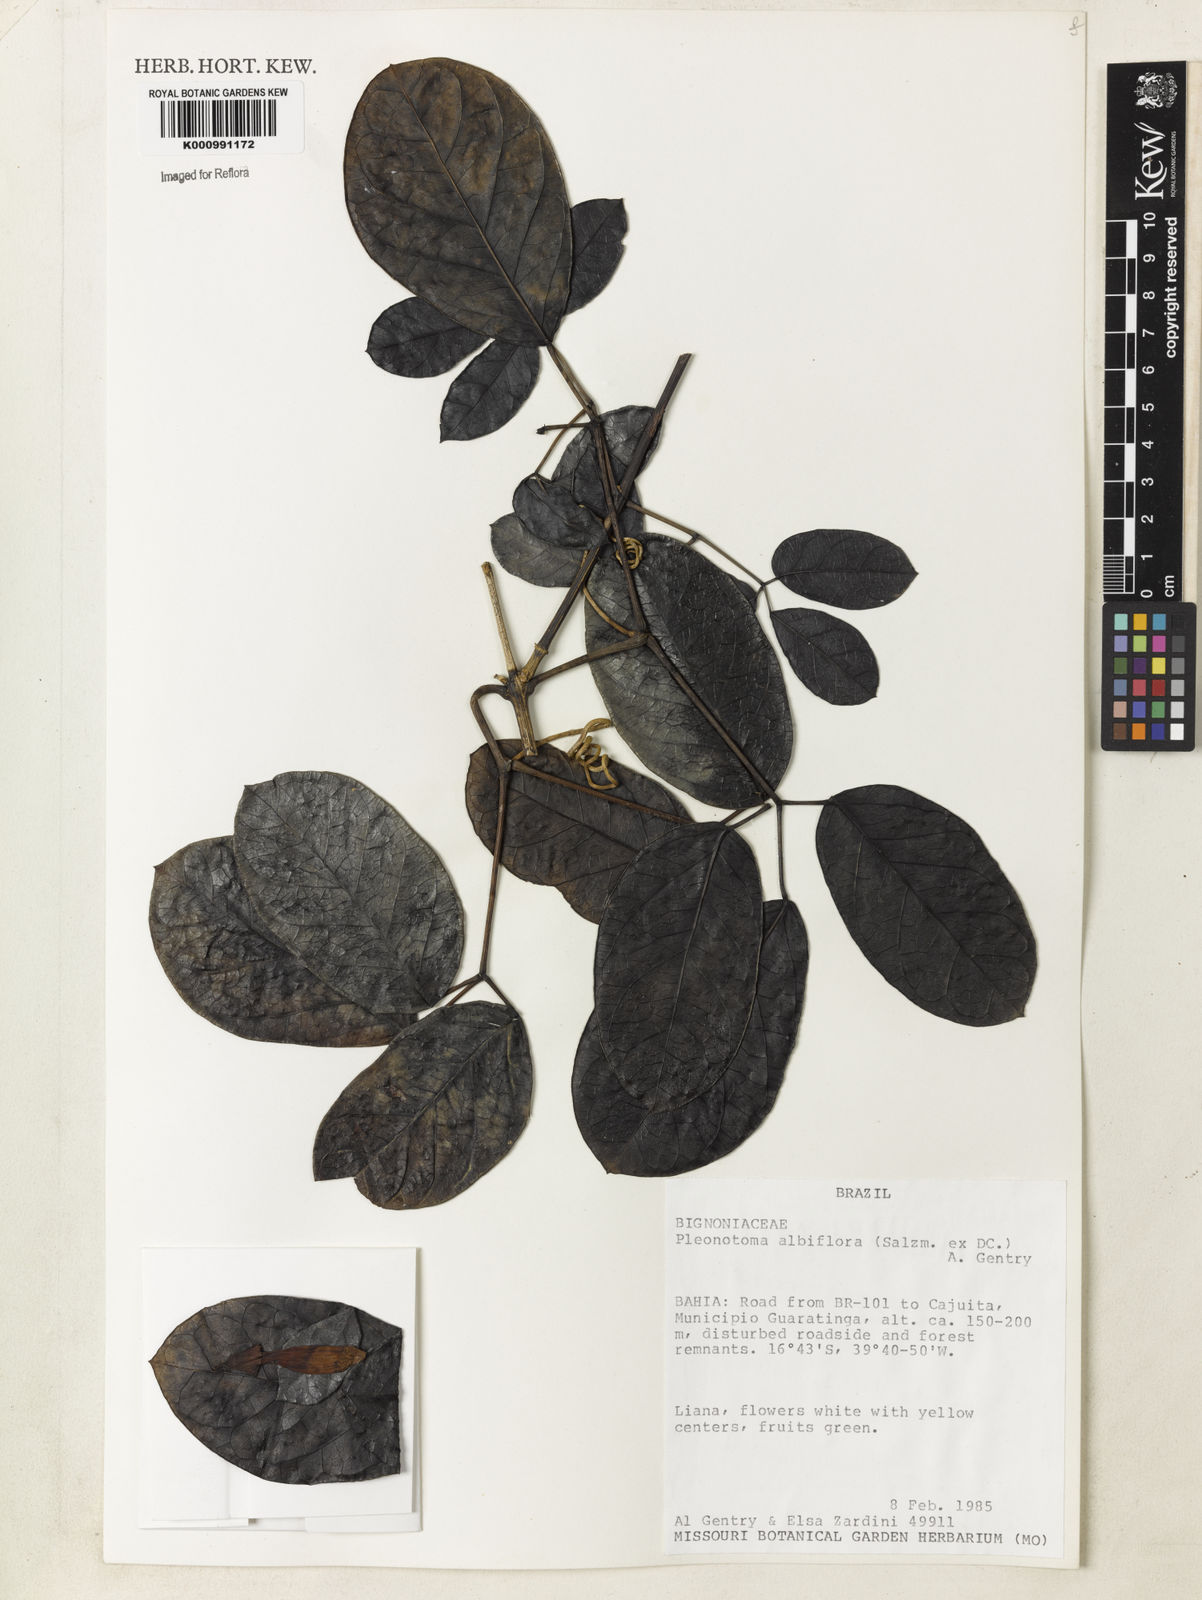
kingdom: Plantae
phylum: Tracheophyta
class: Magnoliopsida
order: Lamiales
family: Bignoniaceae
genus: Adenocalymma
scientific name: Adenocalymma albiflorum
